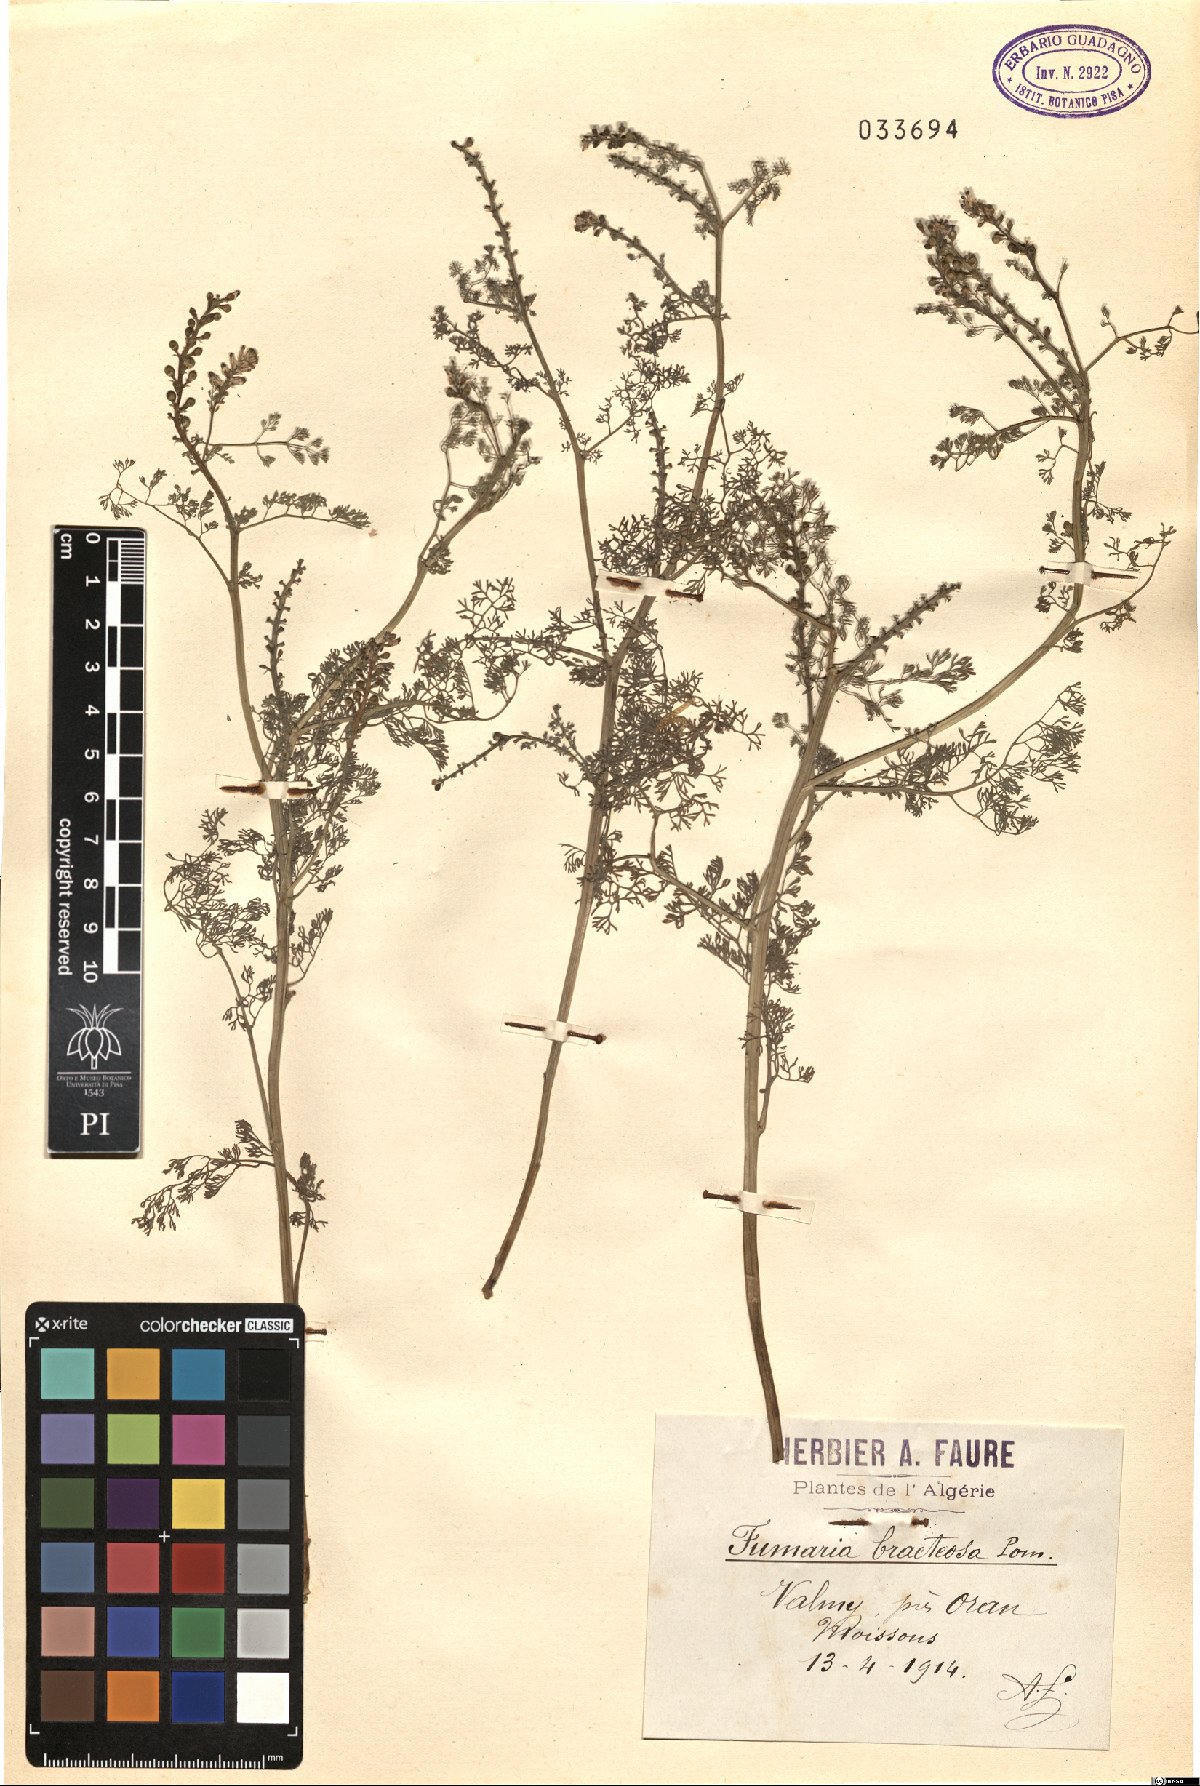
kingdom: Plantae
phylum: Tracheophyta
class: Magnoliopsida
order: Ranunculales
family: Papaveraceae
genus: Fumaria
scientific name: Fumaria bracteosa
